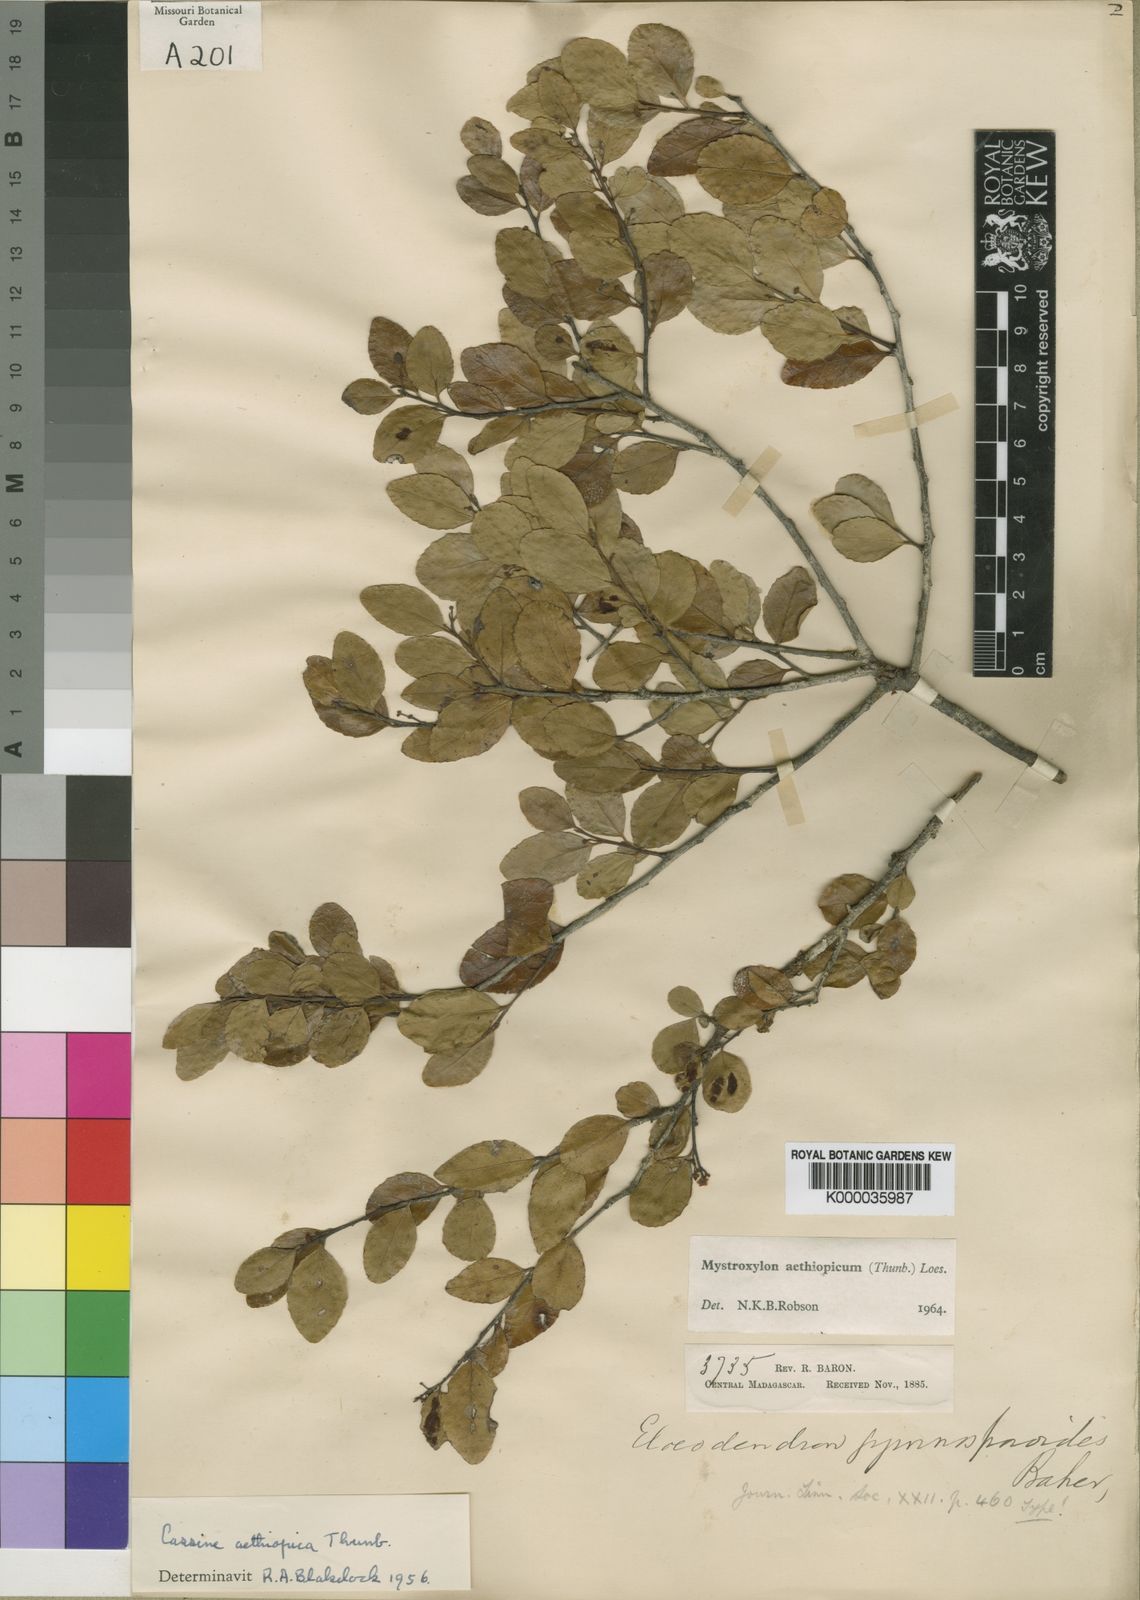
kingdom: Plantae
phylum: Tracheophyta
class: Magnoliopsida
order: Celastrales
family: Celastraceae
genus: Mystroxylon
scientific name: Mystroxylon aethiopicum
